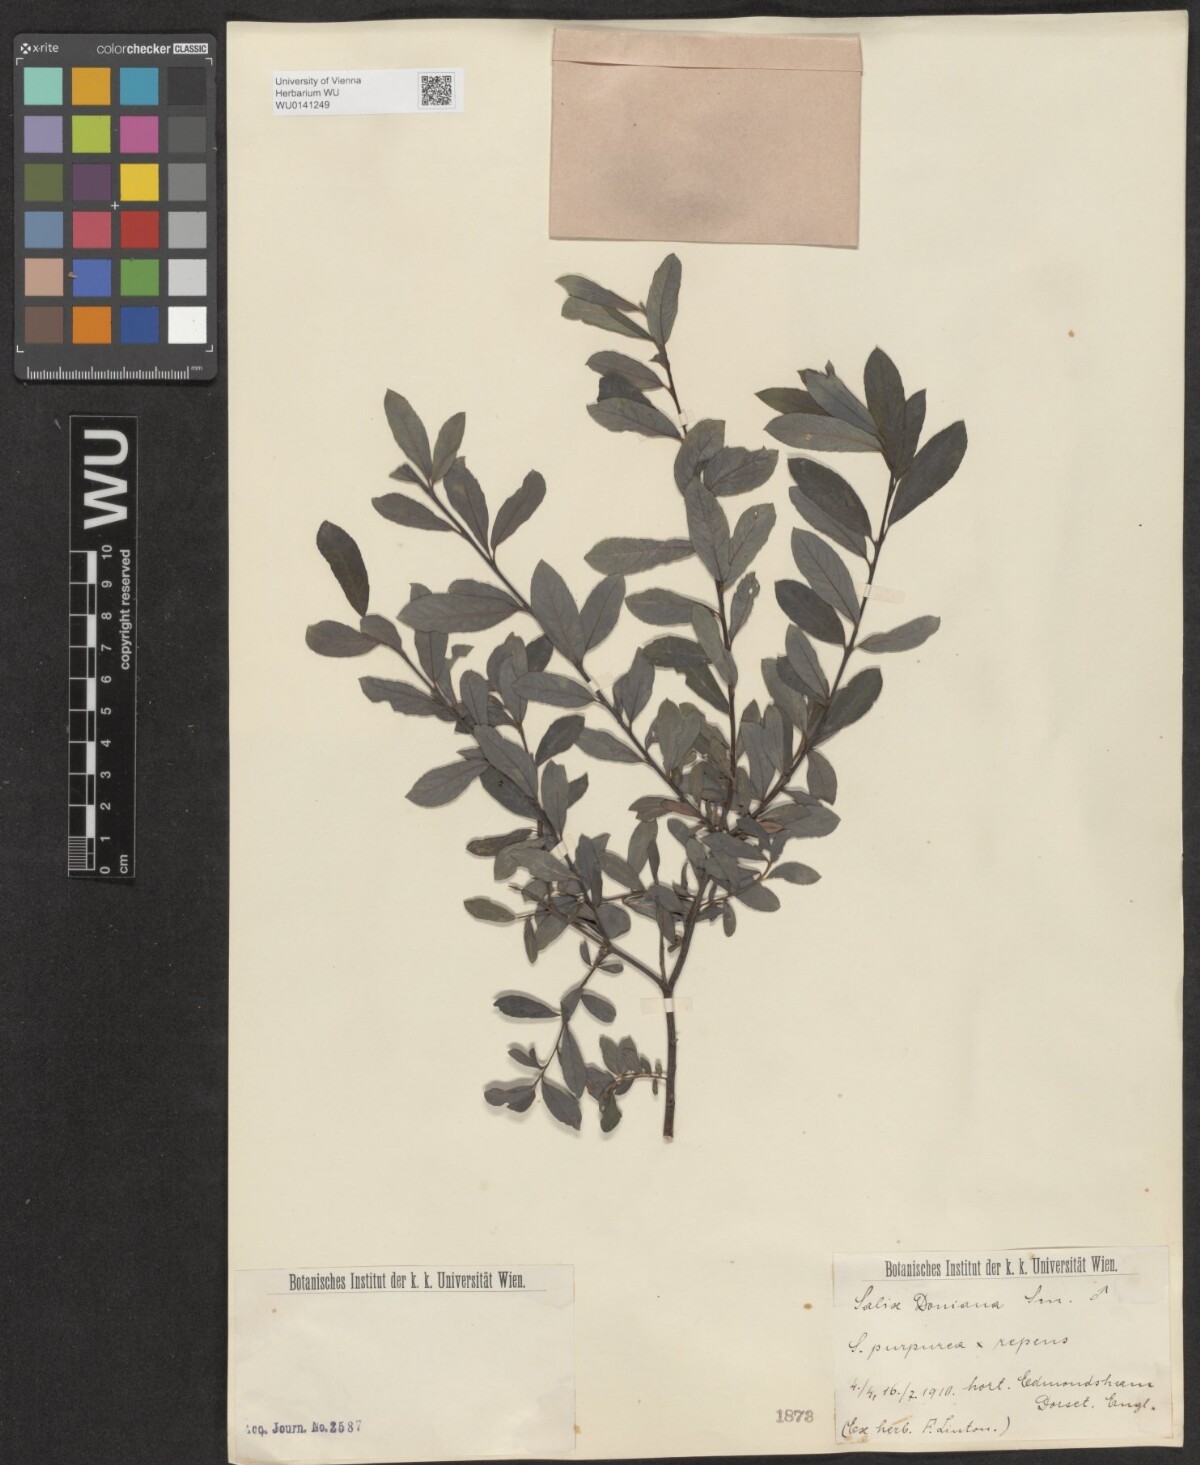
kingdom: Plantae
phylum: Tracheophyta
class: Magnoliopsida
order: Malpighiales
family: Salicaceae
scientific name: Salicaceae
